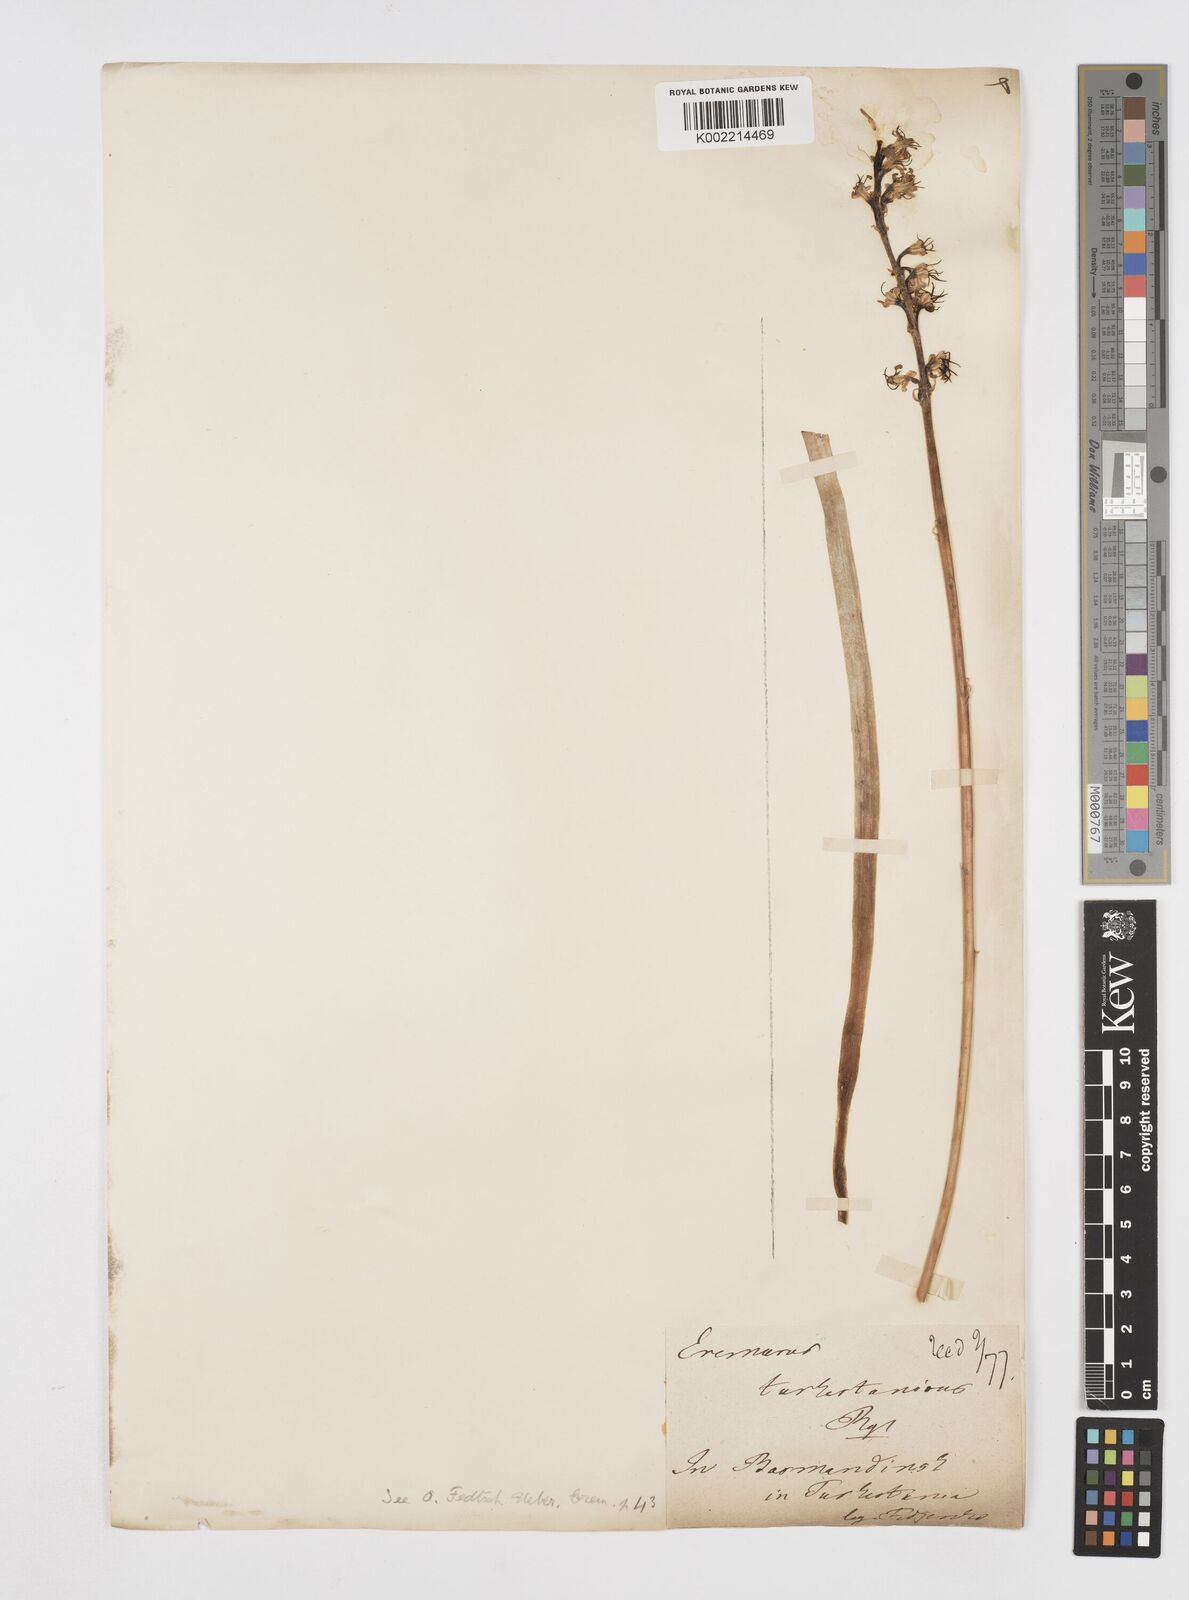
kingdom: Plantae
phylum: Tracheophyta
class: Liliopsida
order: Asparagales
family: Asphodelaceae
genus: Eremurus
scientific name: Eremurus turkestanicus
